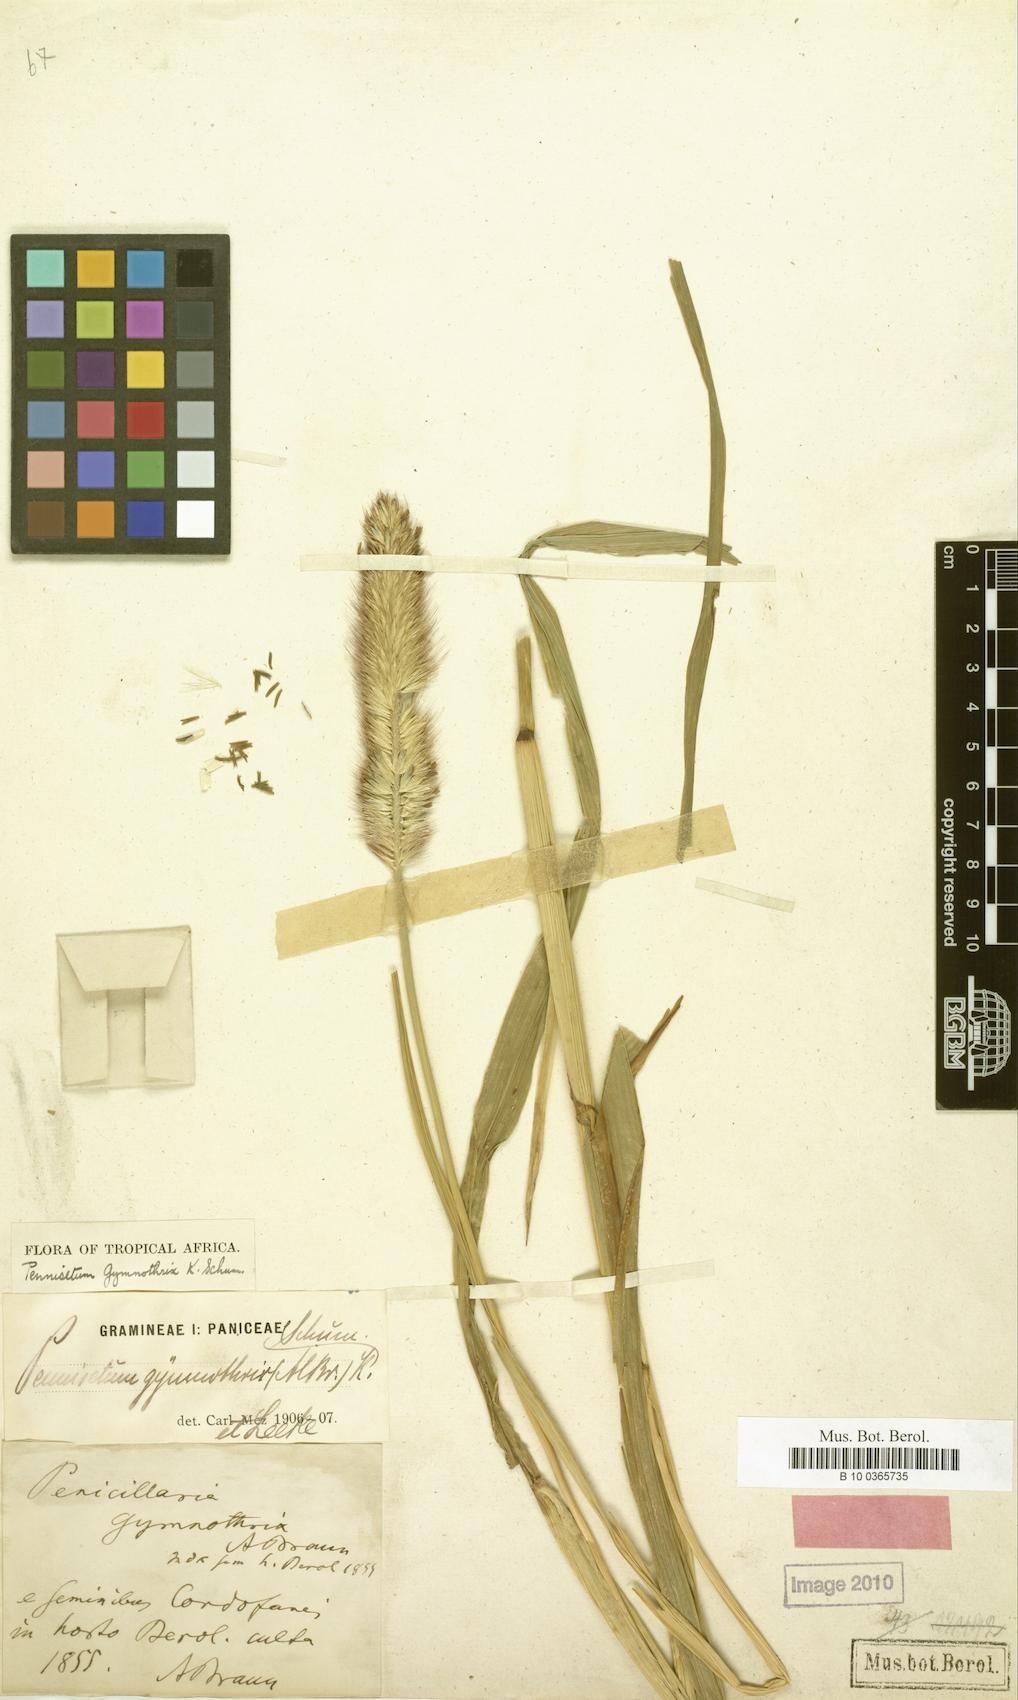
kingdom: Plantae
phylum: Tracheophyta
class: Liliopsida
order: Poales
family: Poaceae
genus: Cenchrus
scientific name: Cenchrus sieberianus
